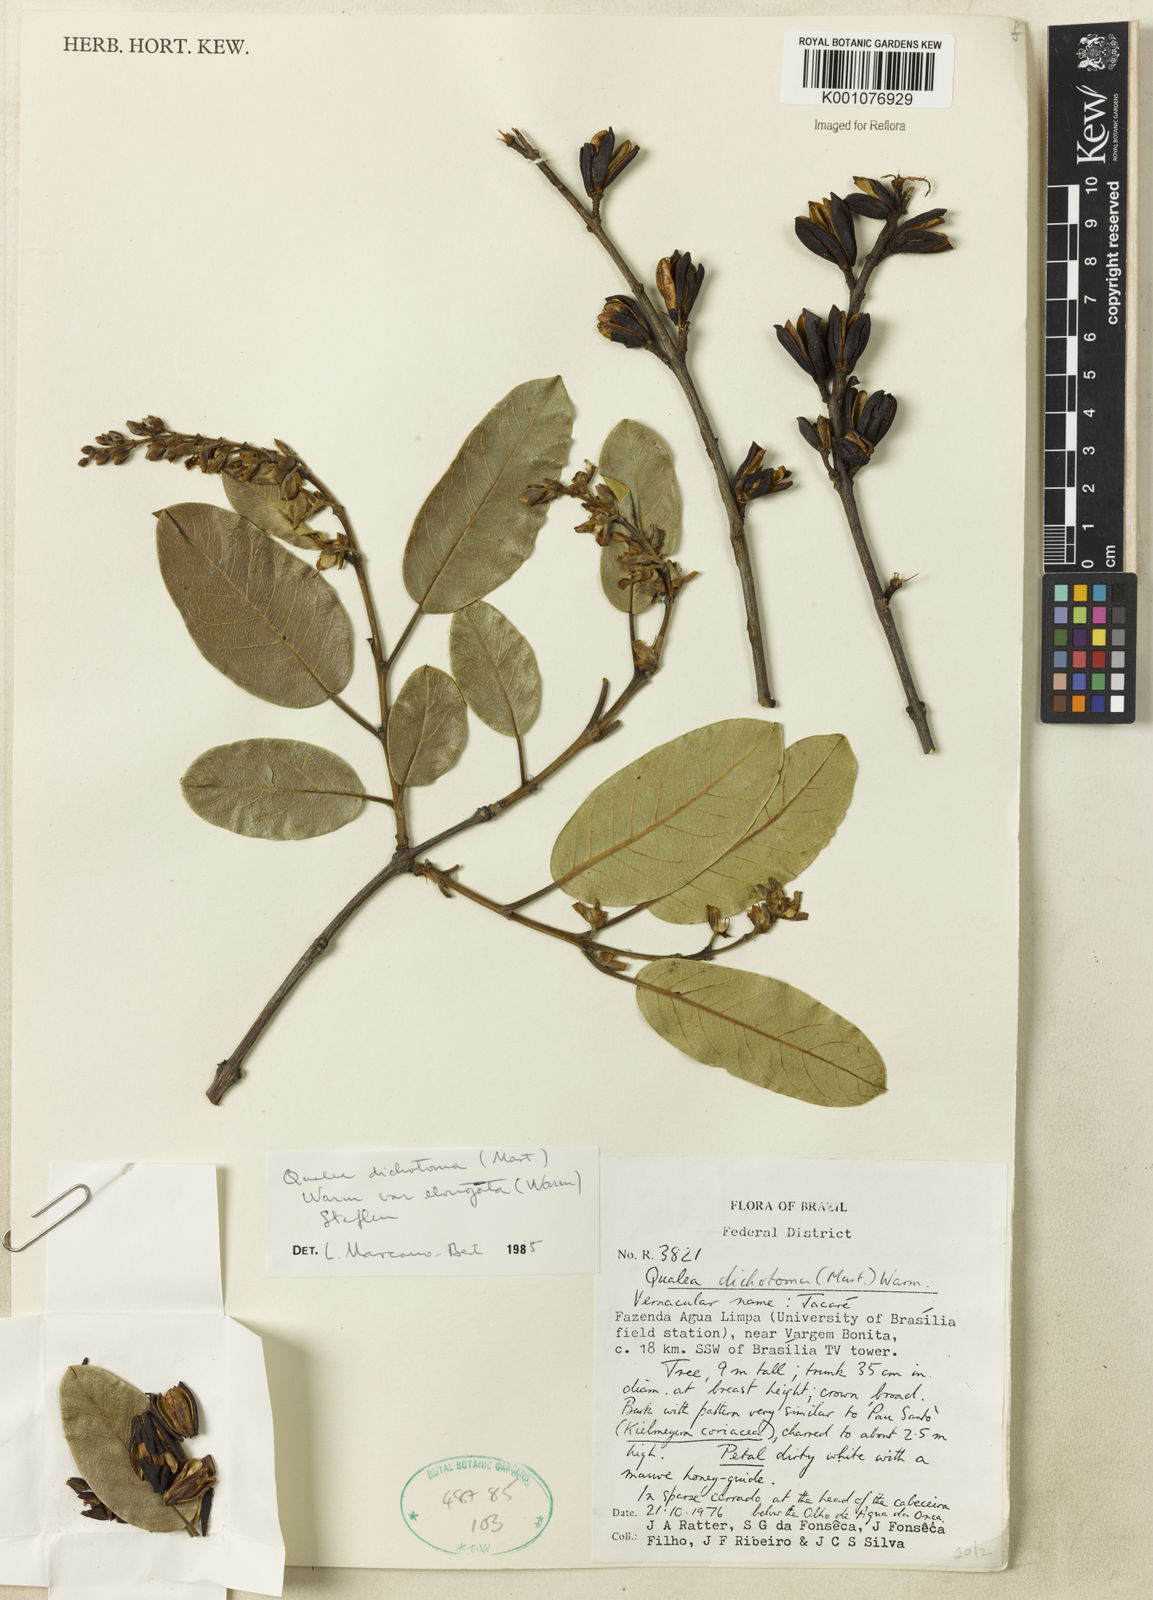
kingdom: Plantae
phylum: Tracheophyta
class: Magnoliopsida
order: Myrtales
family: Vochysiaceae
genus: Qualea
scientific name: Qualea cordata
